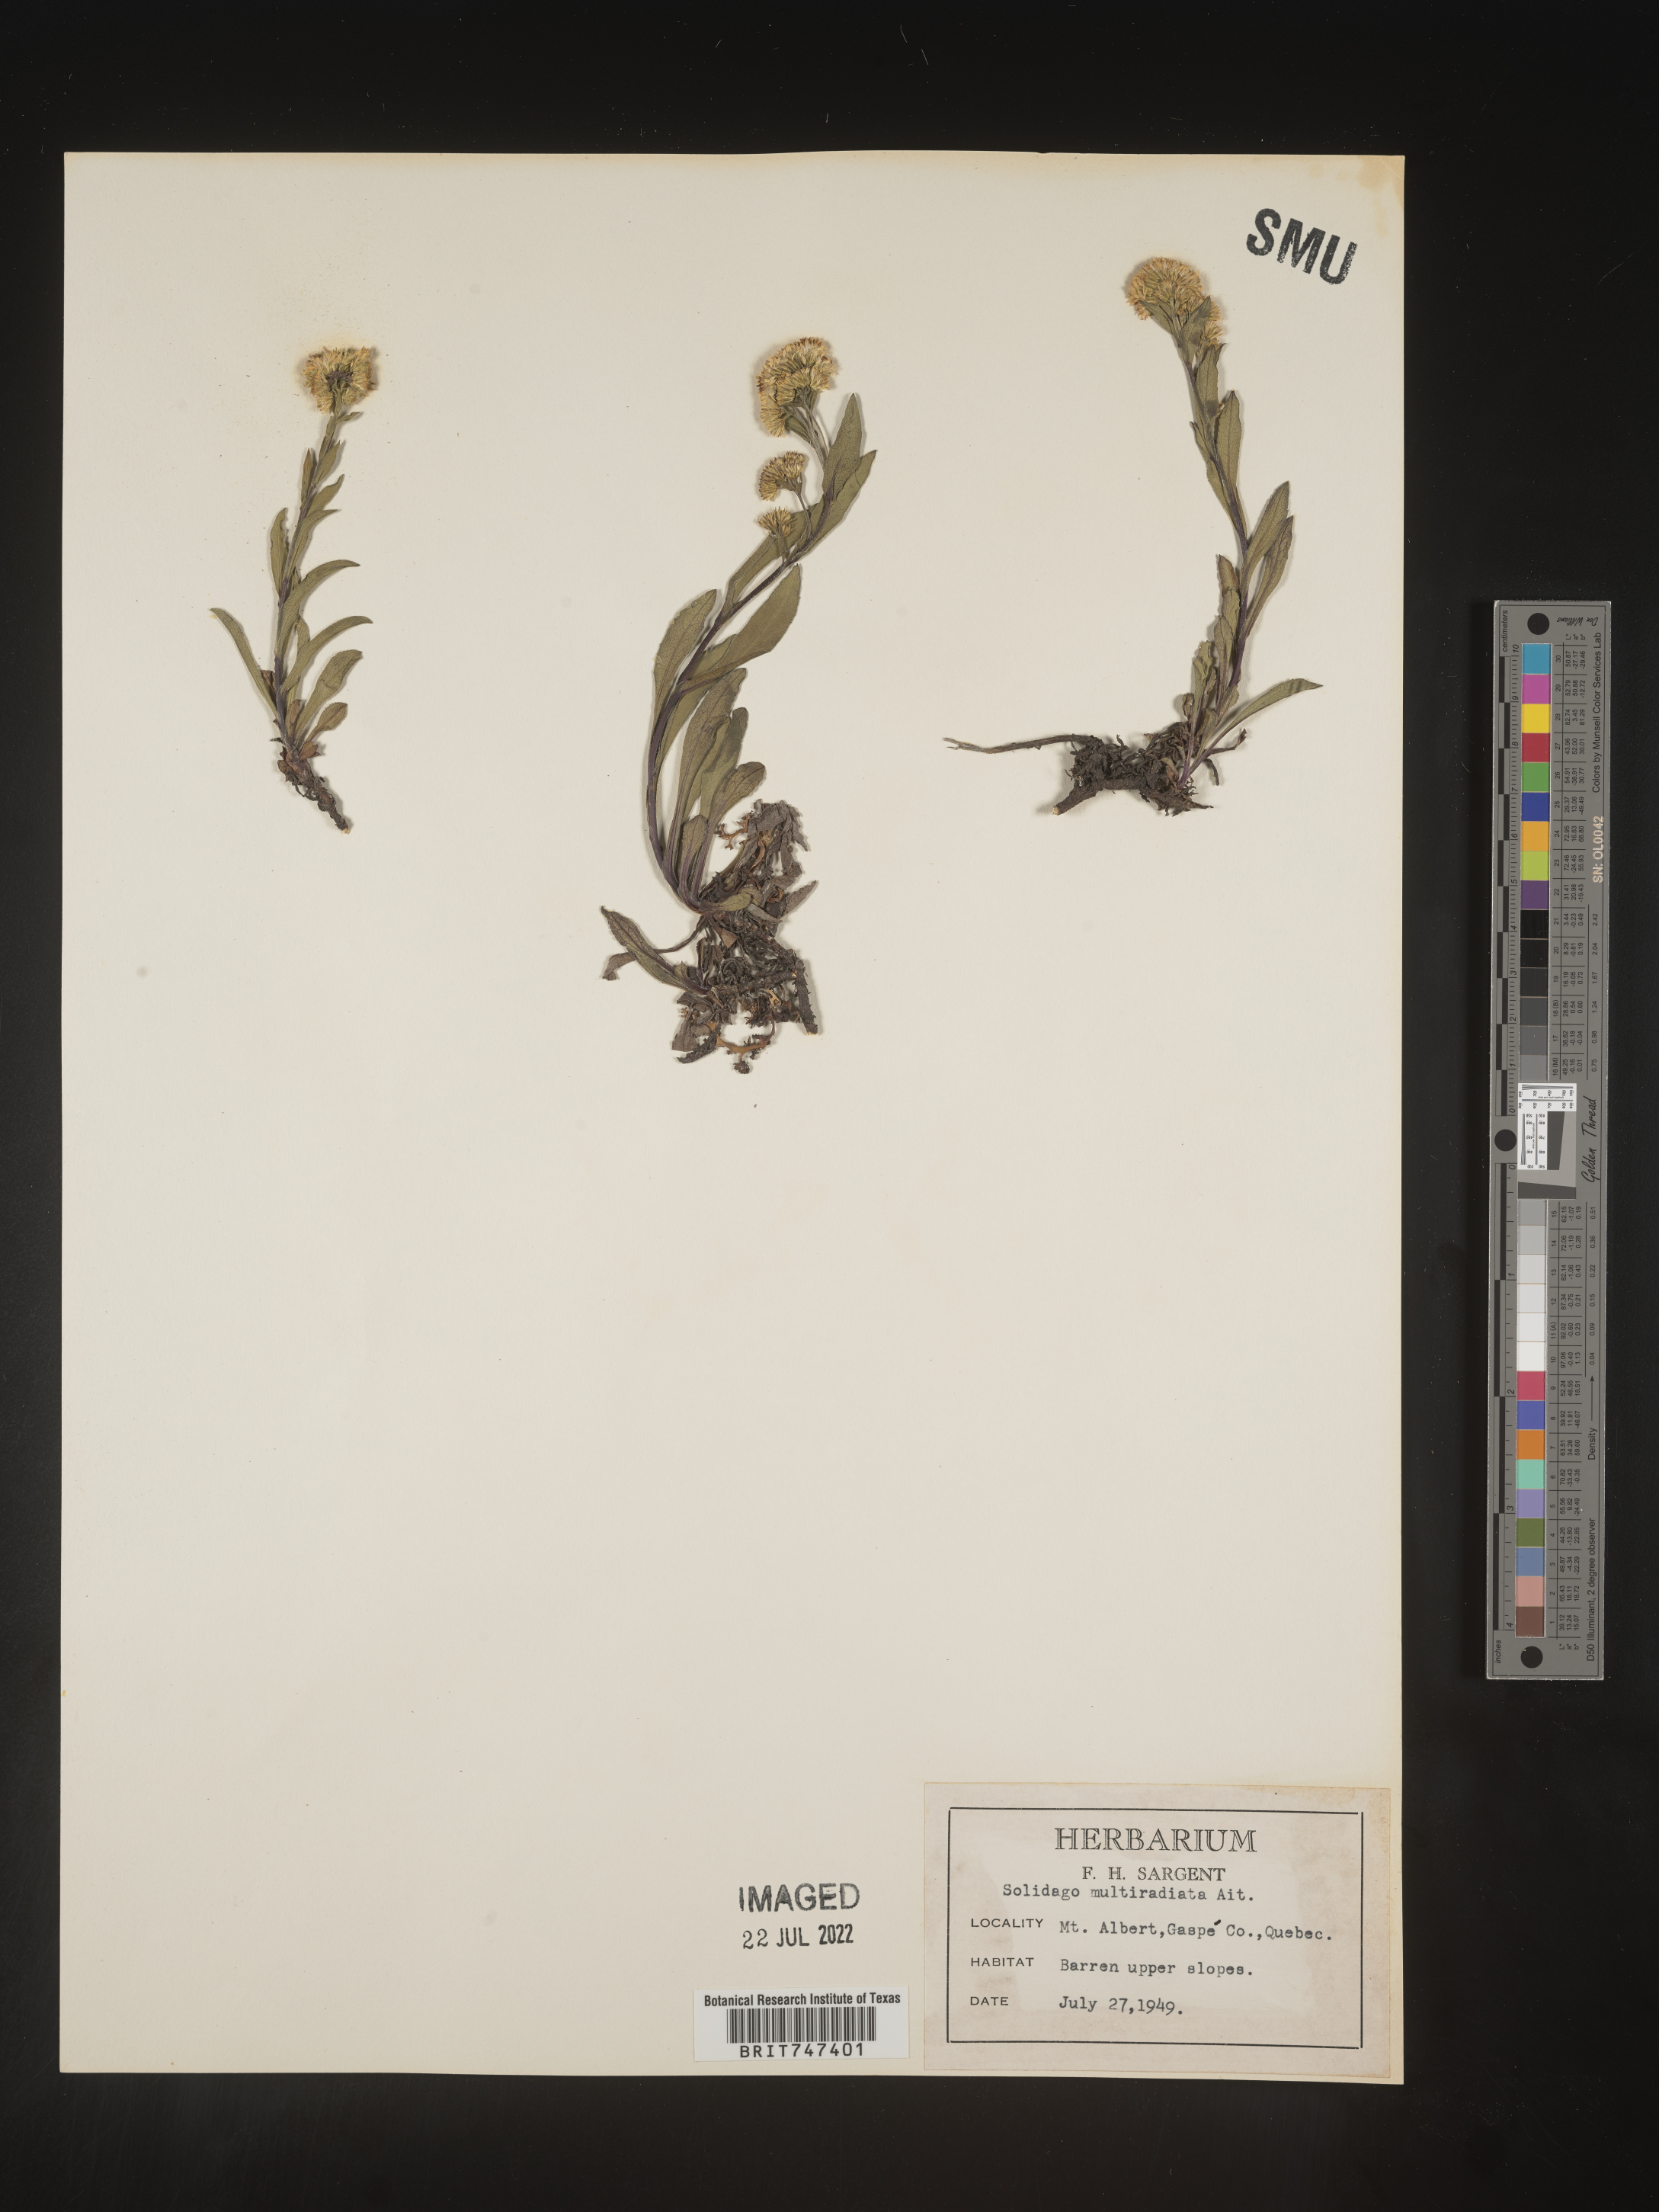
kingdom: Plantae
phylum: Tracheophyta
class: Magnoliopsida
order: Asterales
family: Asteraceae
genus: Solidago
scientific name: Solidago multiradiata
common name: Northern goldenrod
